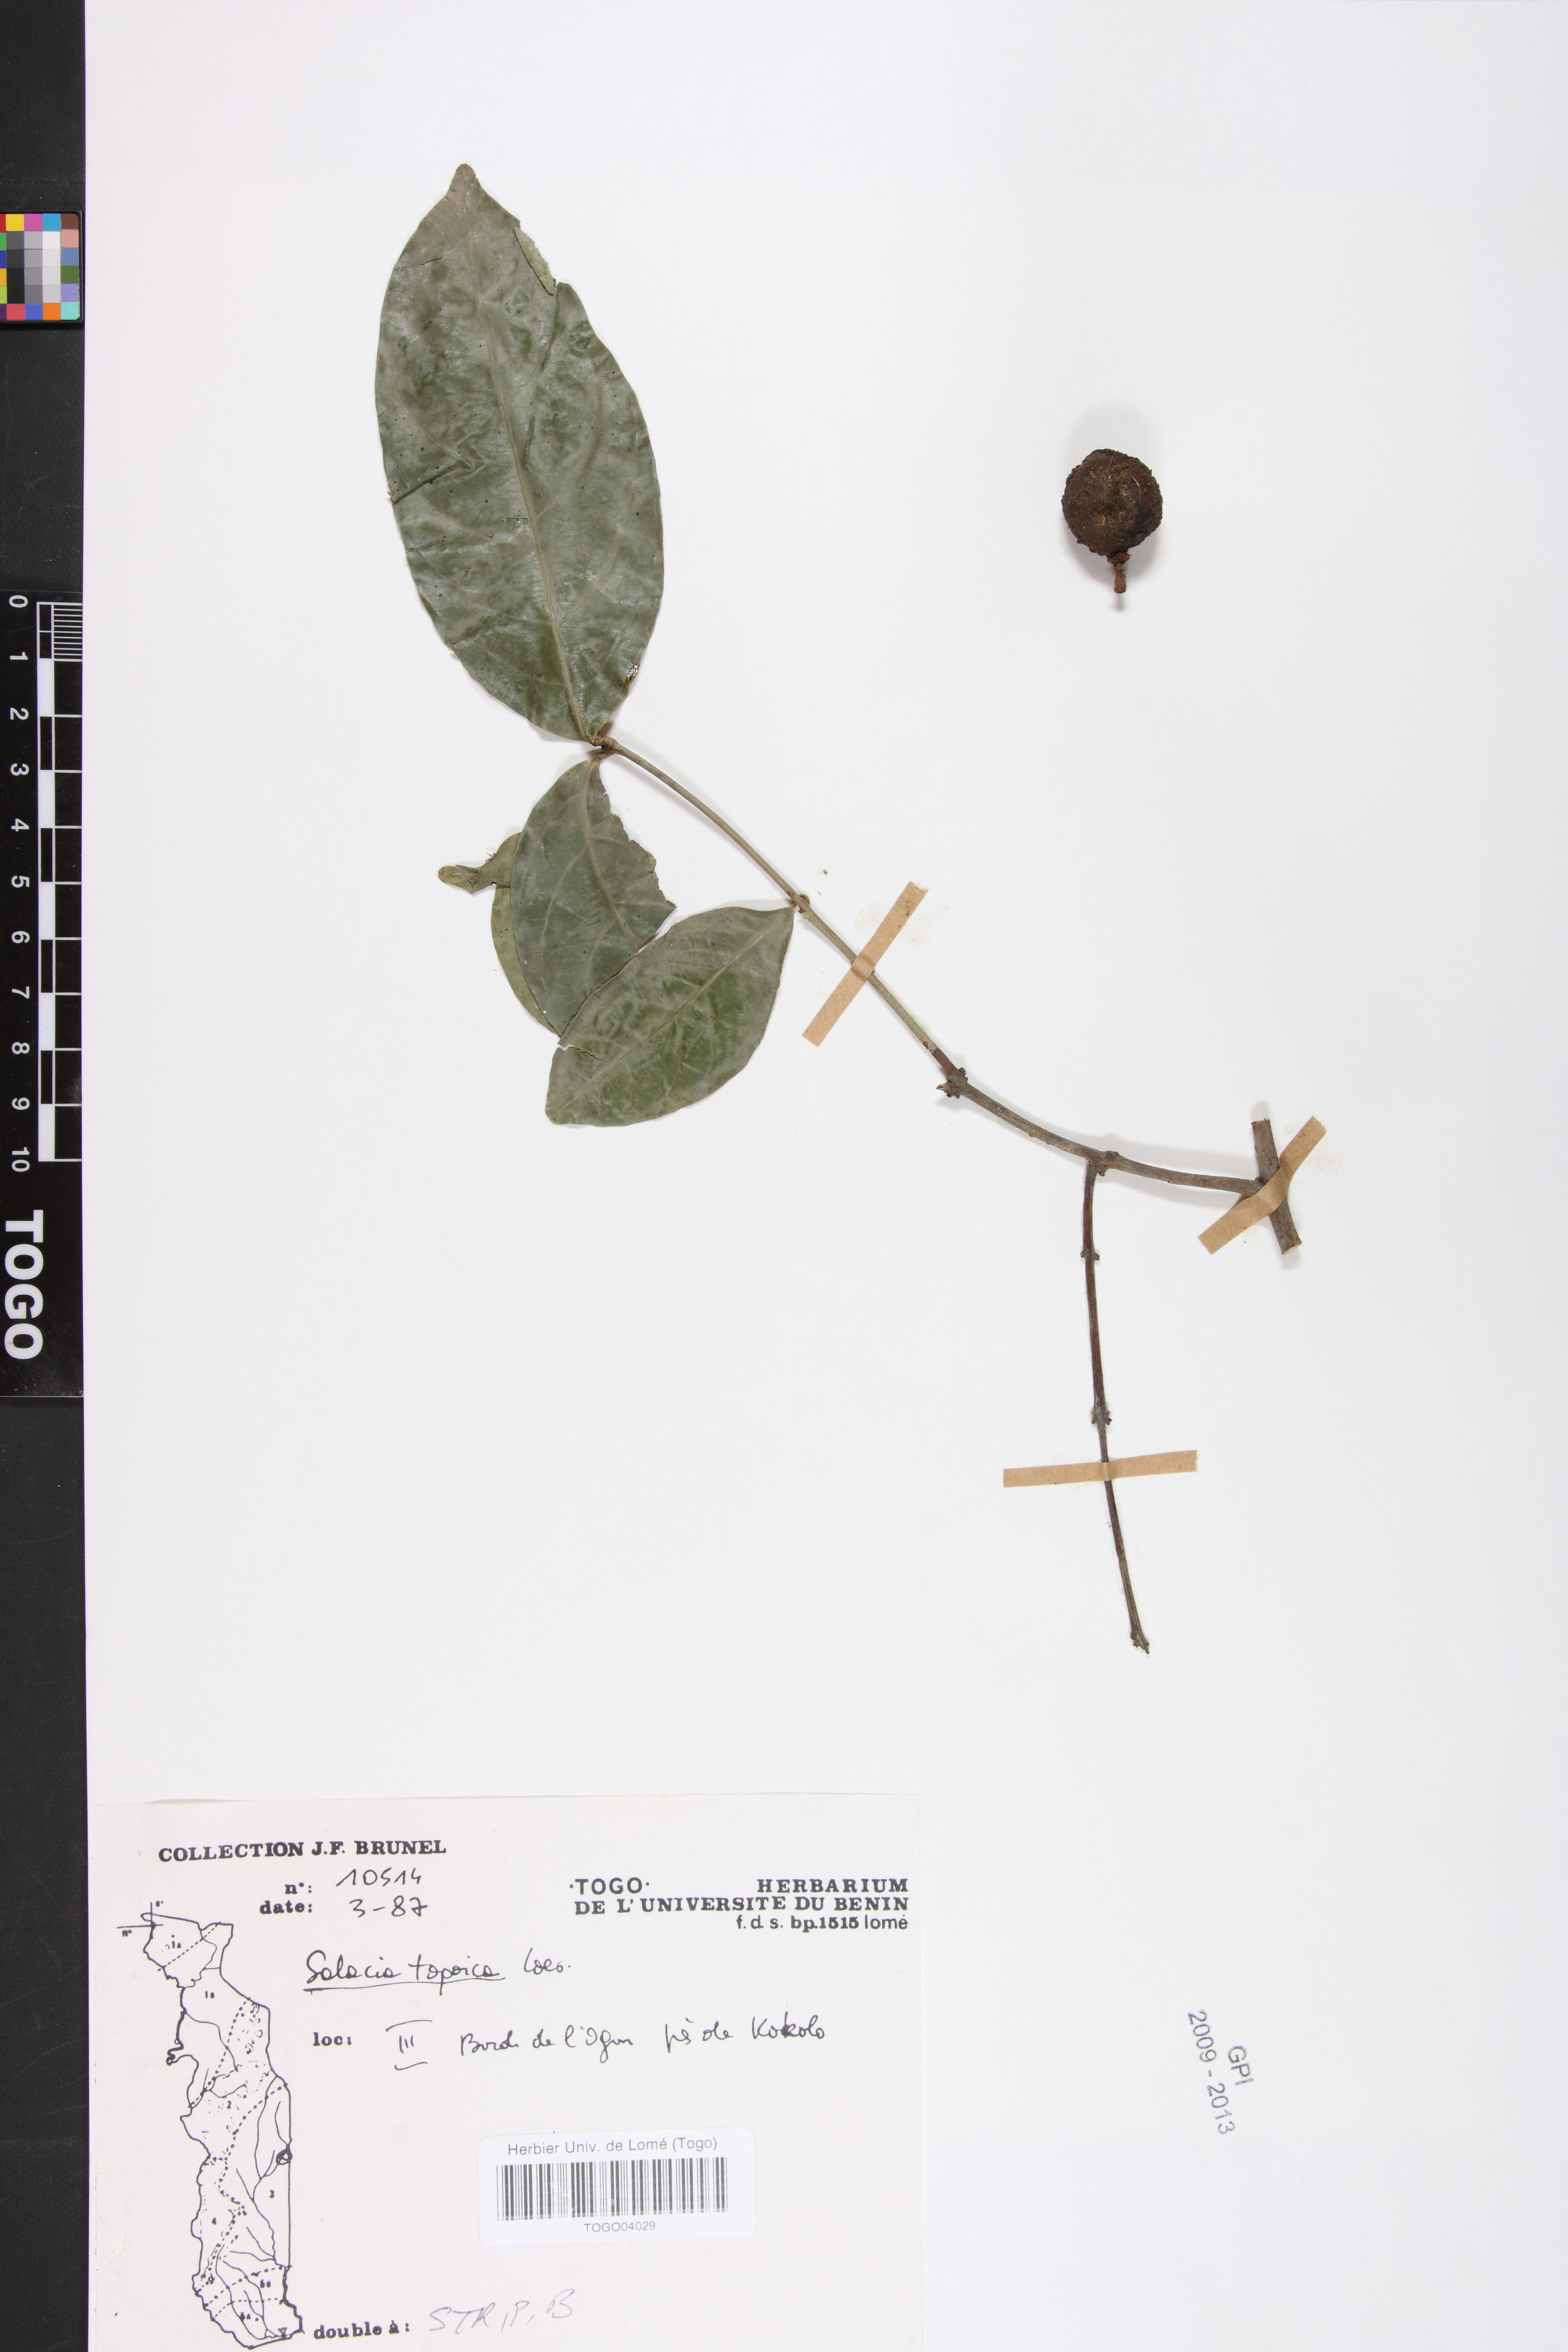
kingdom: Plantae
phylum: Tracheophyta
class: Magnoliopsida
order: Celastrales
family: Celastraceae
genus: Salacia
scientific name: Salacia togoica
